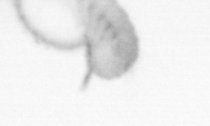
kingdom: Animalia
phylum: Arthropoda
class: Copepoda
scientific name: Copepoda
